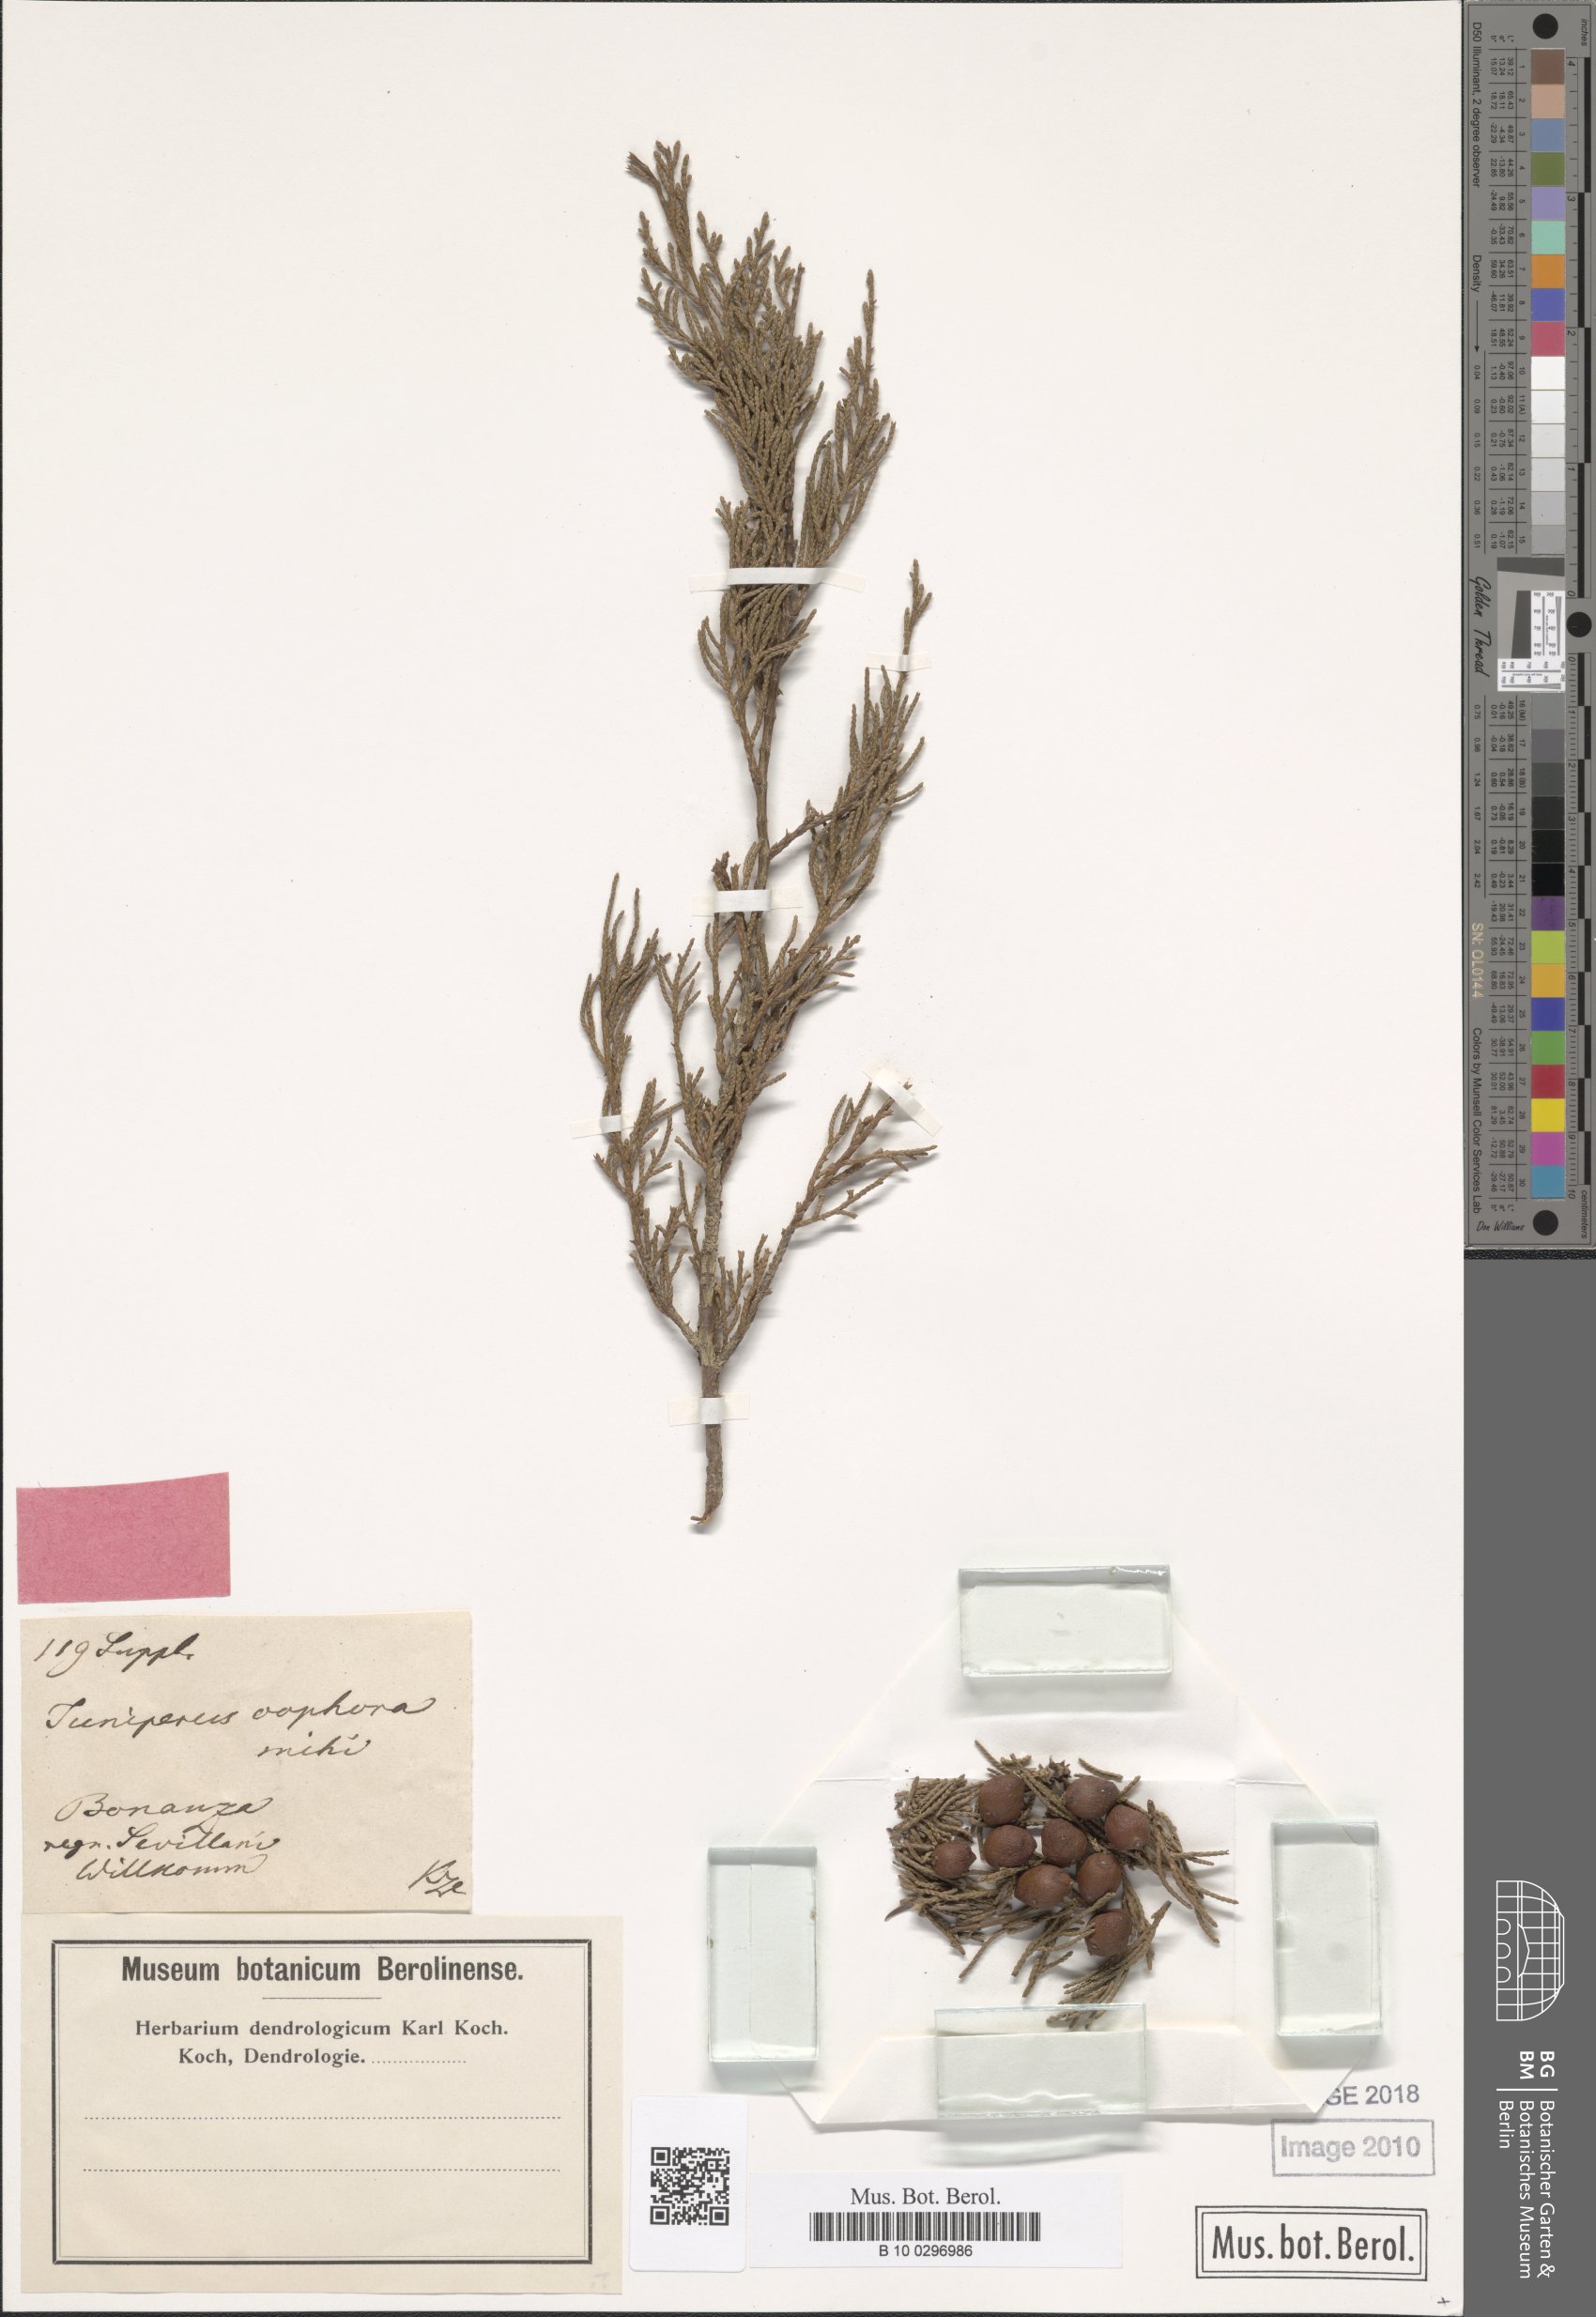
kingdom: Plantae
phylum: Tracheophyta
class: Pinopsida
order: Pinales
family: Cupressaceae
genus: Juniperus
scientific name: Juniperus phoenicea
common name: Phoenician juniper
